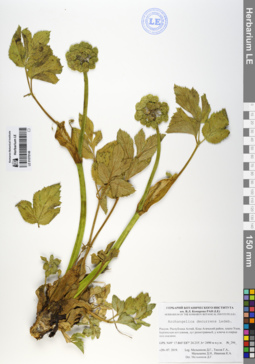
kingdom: Plantae
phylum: Tracheophyta
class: Magnoliopsida
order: Apiales
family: Apiaceae
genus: Angelica
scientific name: Angelica decurrens
